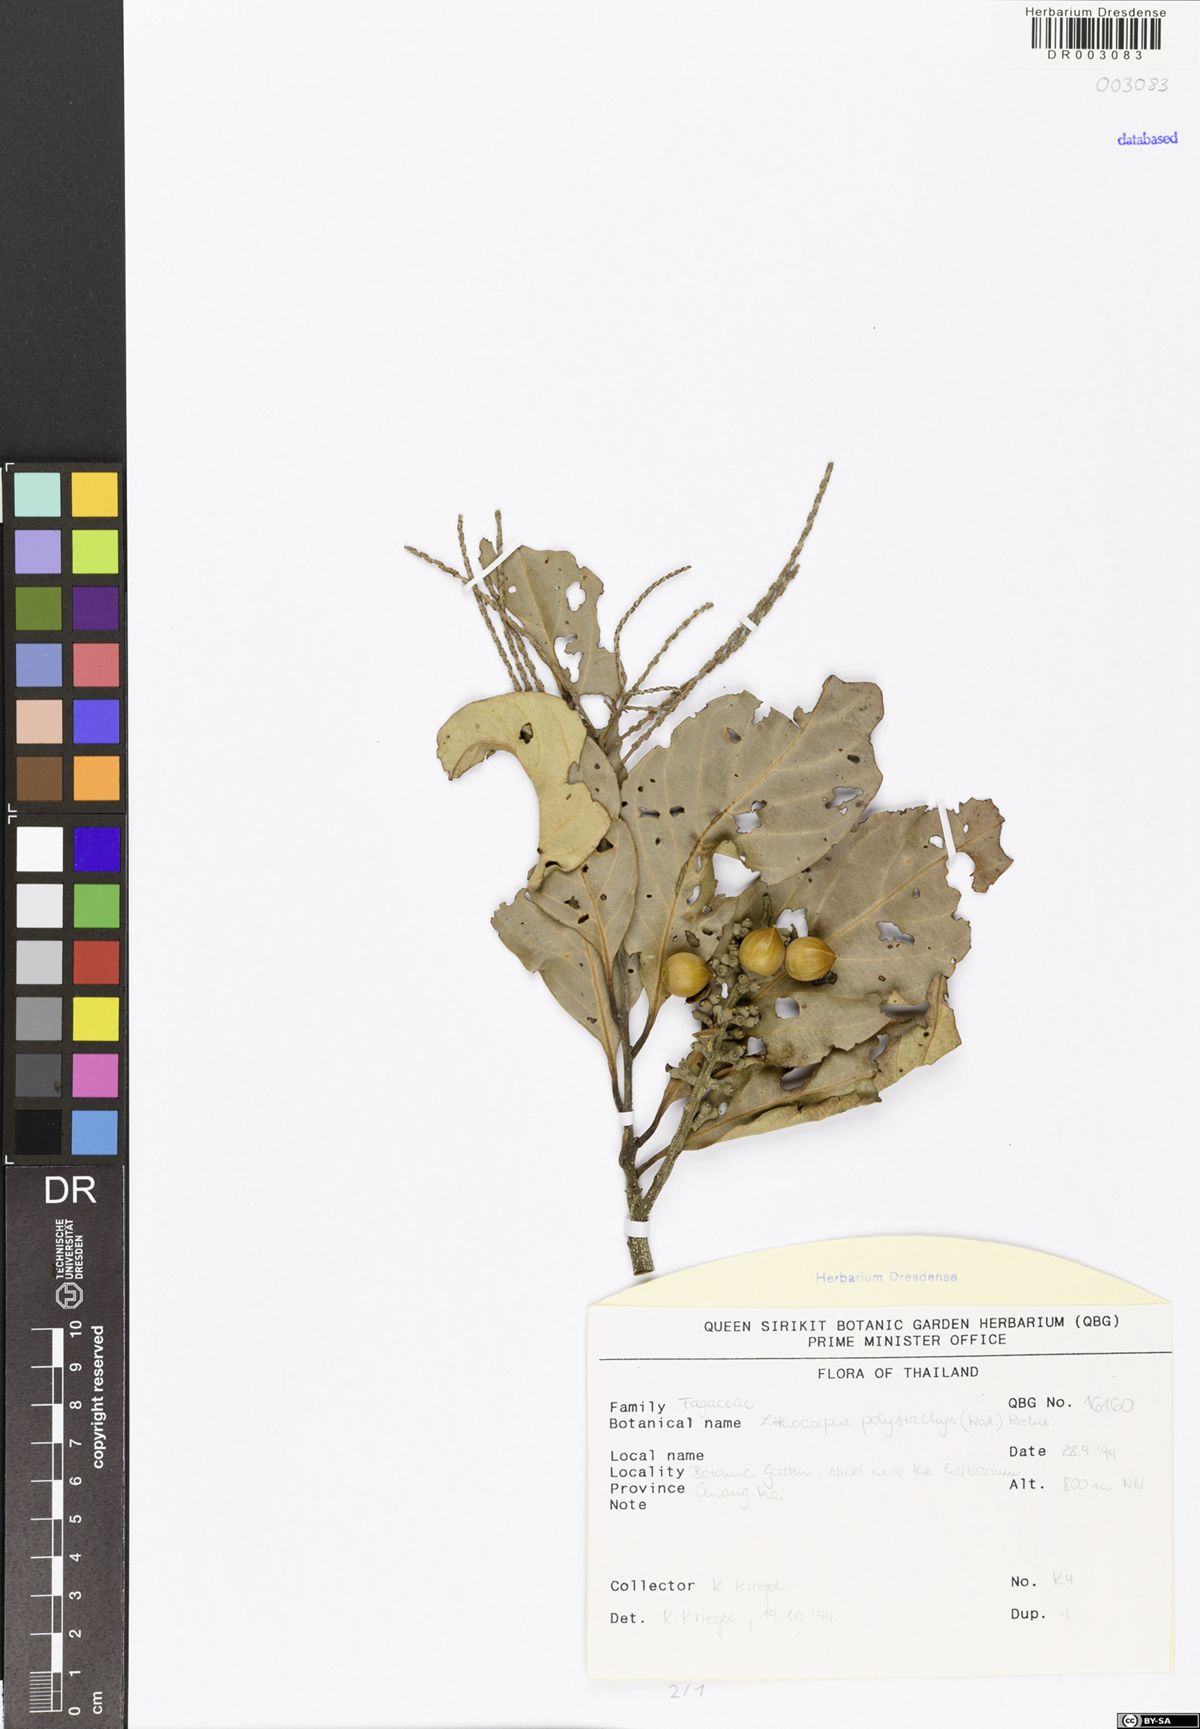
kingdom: Plantae
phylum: Tracheophyta
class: Magnoliopsida
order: Fagales
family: Fagaceae
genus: Lithocarpus
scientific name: Lithocarpus polystachyus
